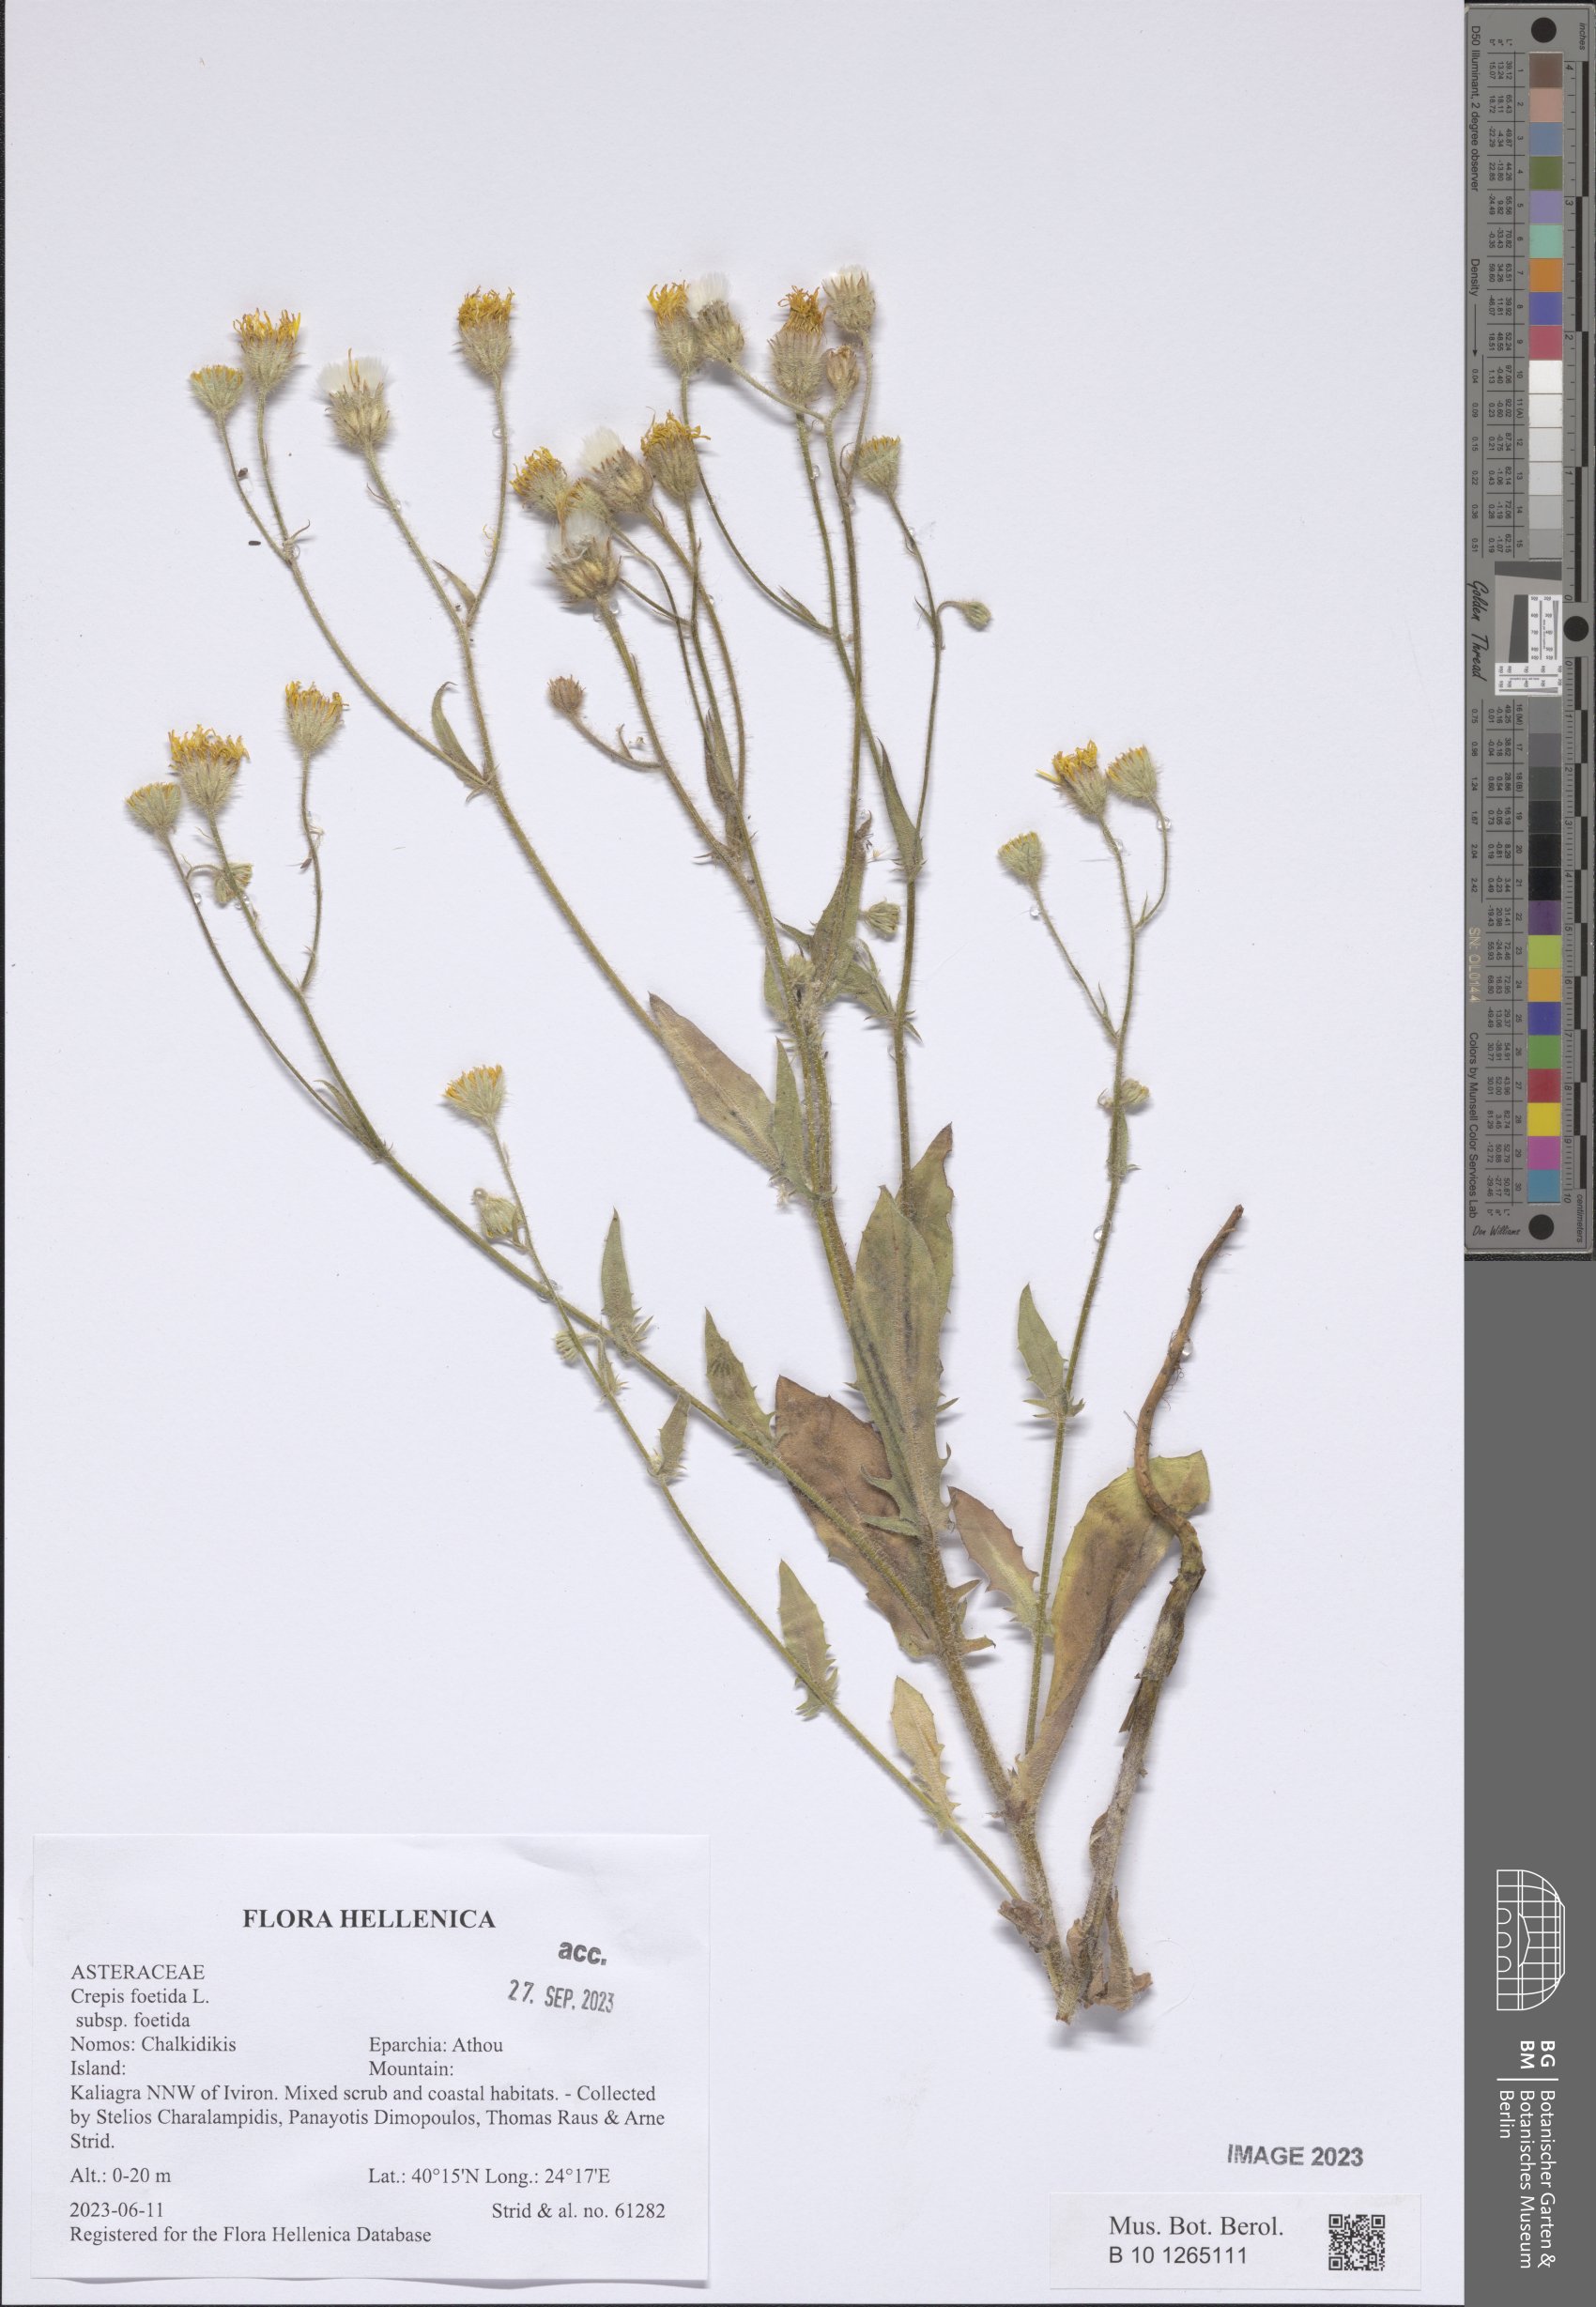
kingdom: Plantae
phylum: Tracheophyta
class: Magnoliopsida
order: Asterales
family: Asteraceae
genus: Crepis
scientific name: Crepis foetida
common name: Stinking hawk's-beard
